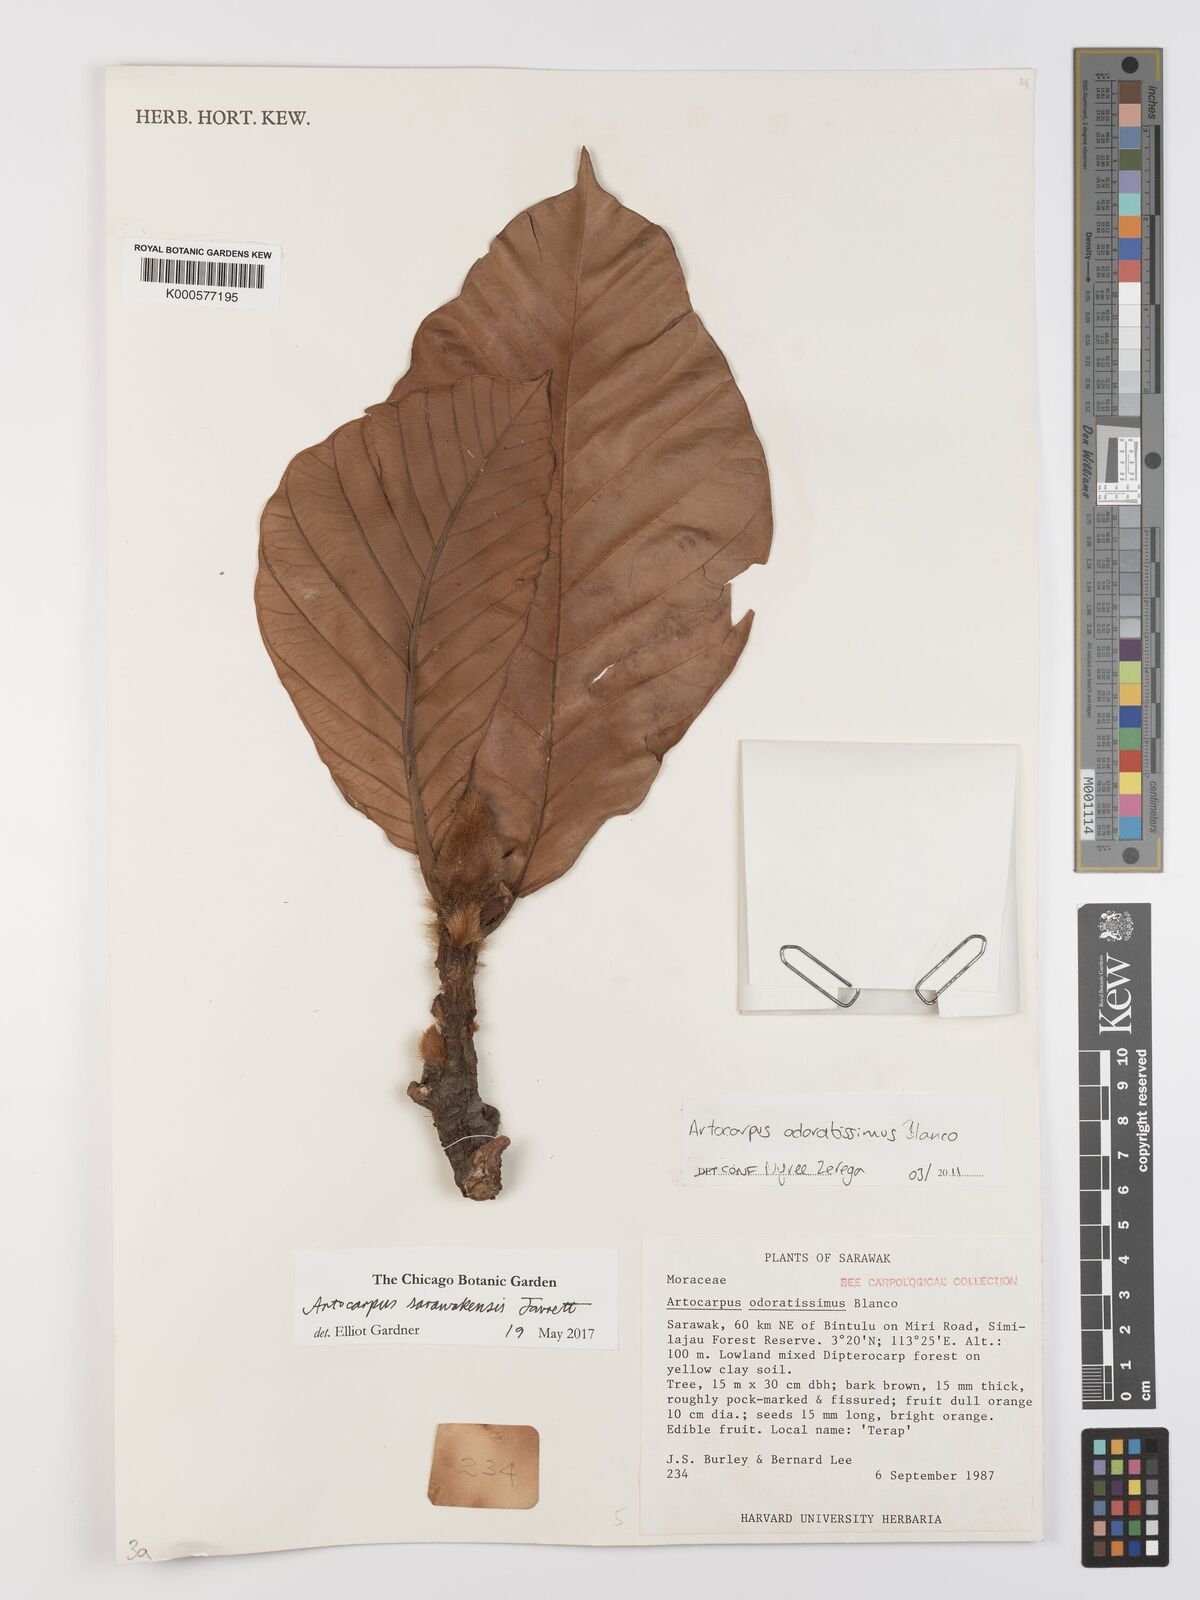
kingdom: Plantae
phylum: Tracheophyta
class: Magnoliopsida
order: Rosales
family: Moraceae
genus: Artocarpus
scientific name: Artocarpus sarawakensis
